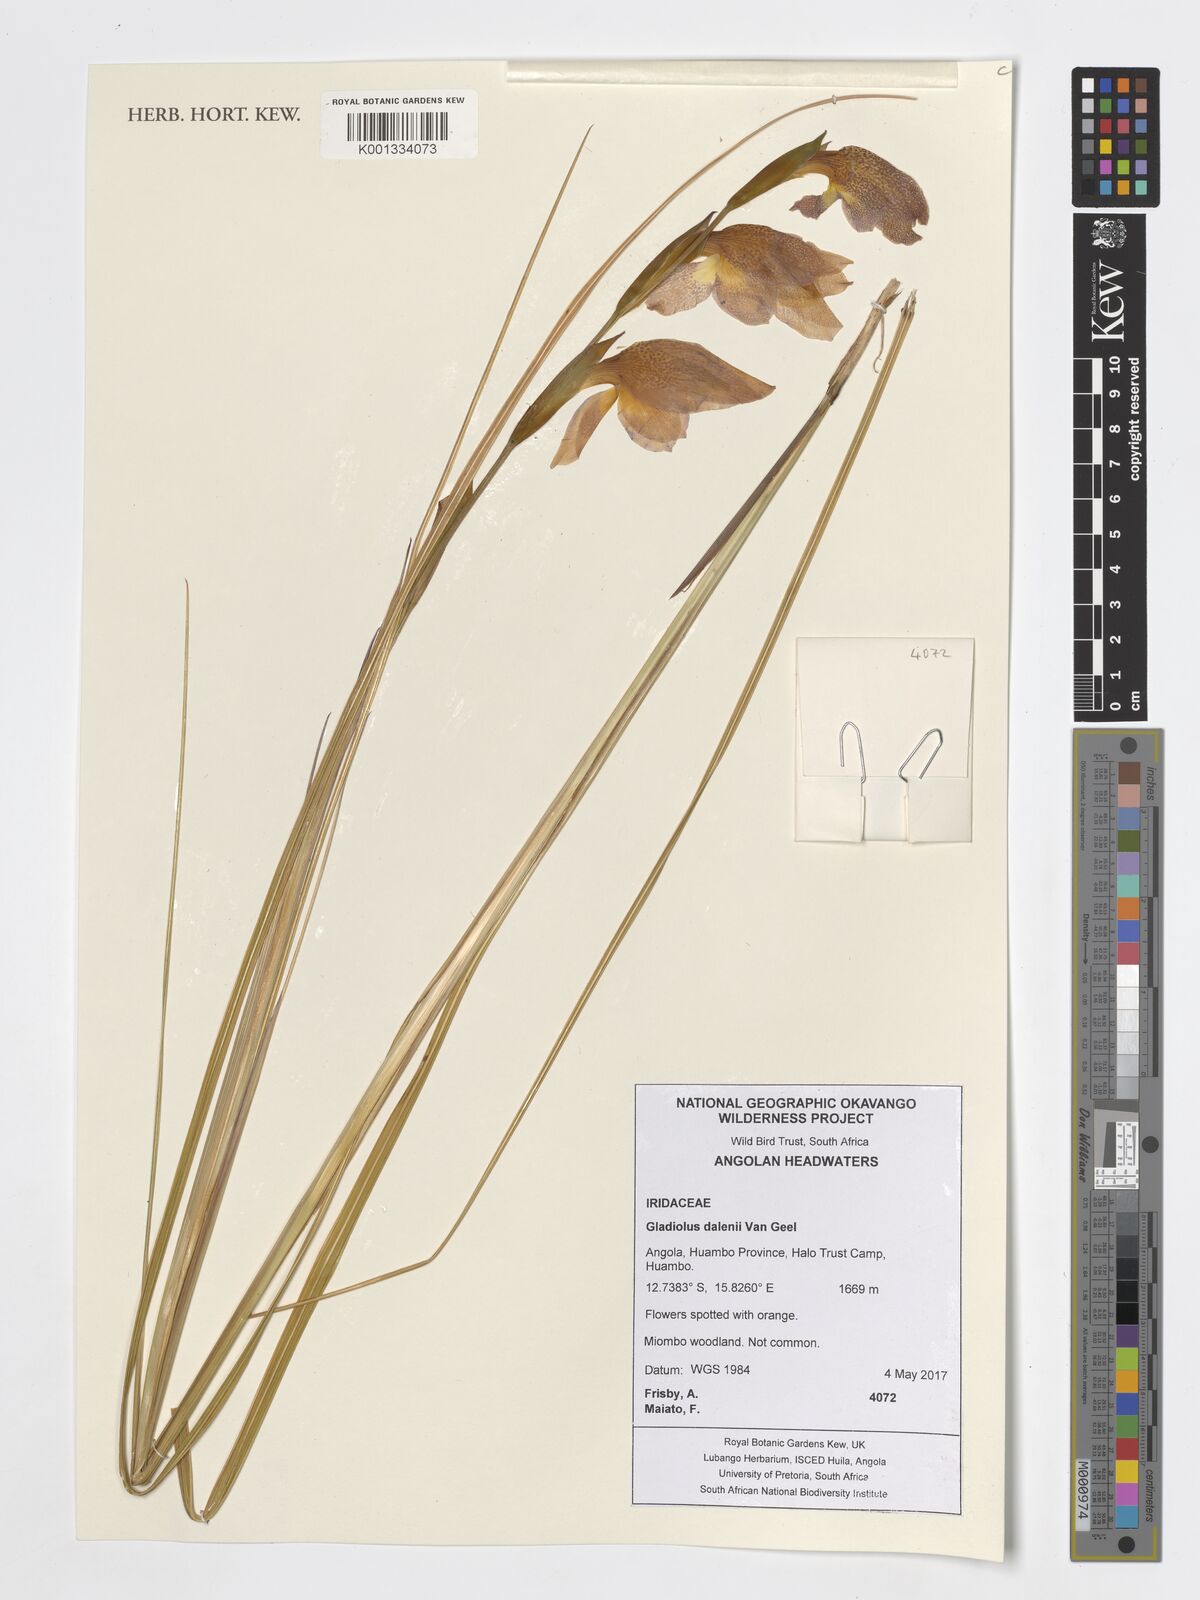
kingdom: Plantae
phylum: Tracheophyta
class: Liliopsida
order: Asparagales
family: Iridaceae
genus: Gladiolus
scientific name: Gladiolus dalenii
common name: Cornflag
